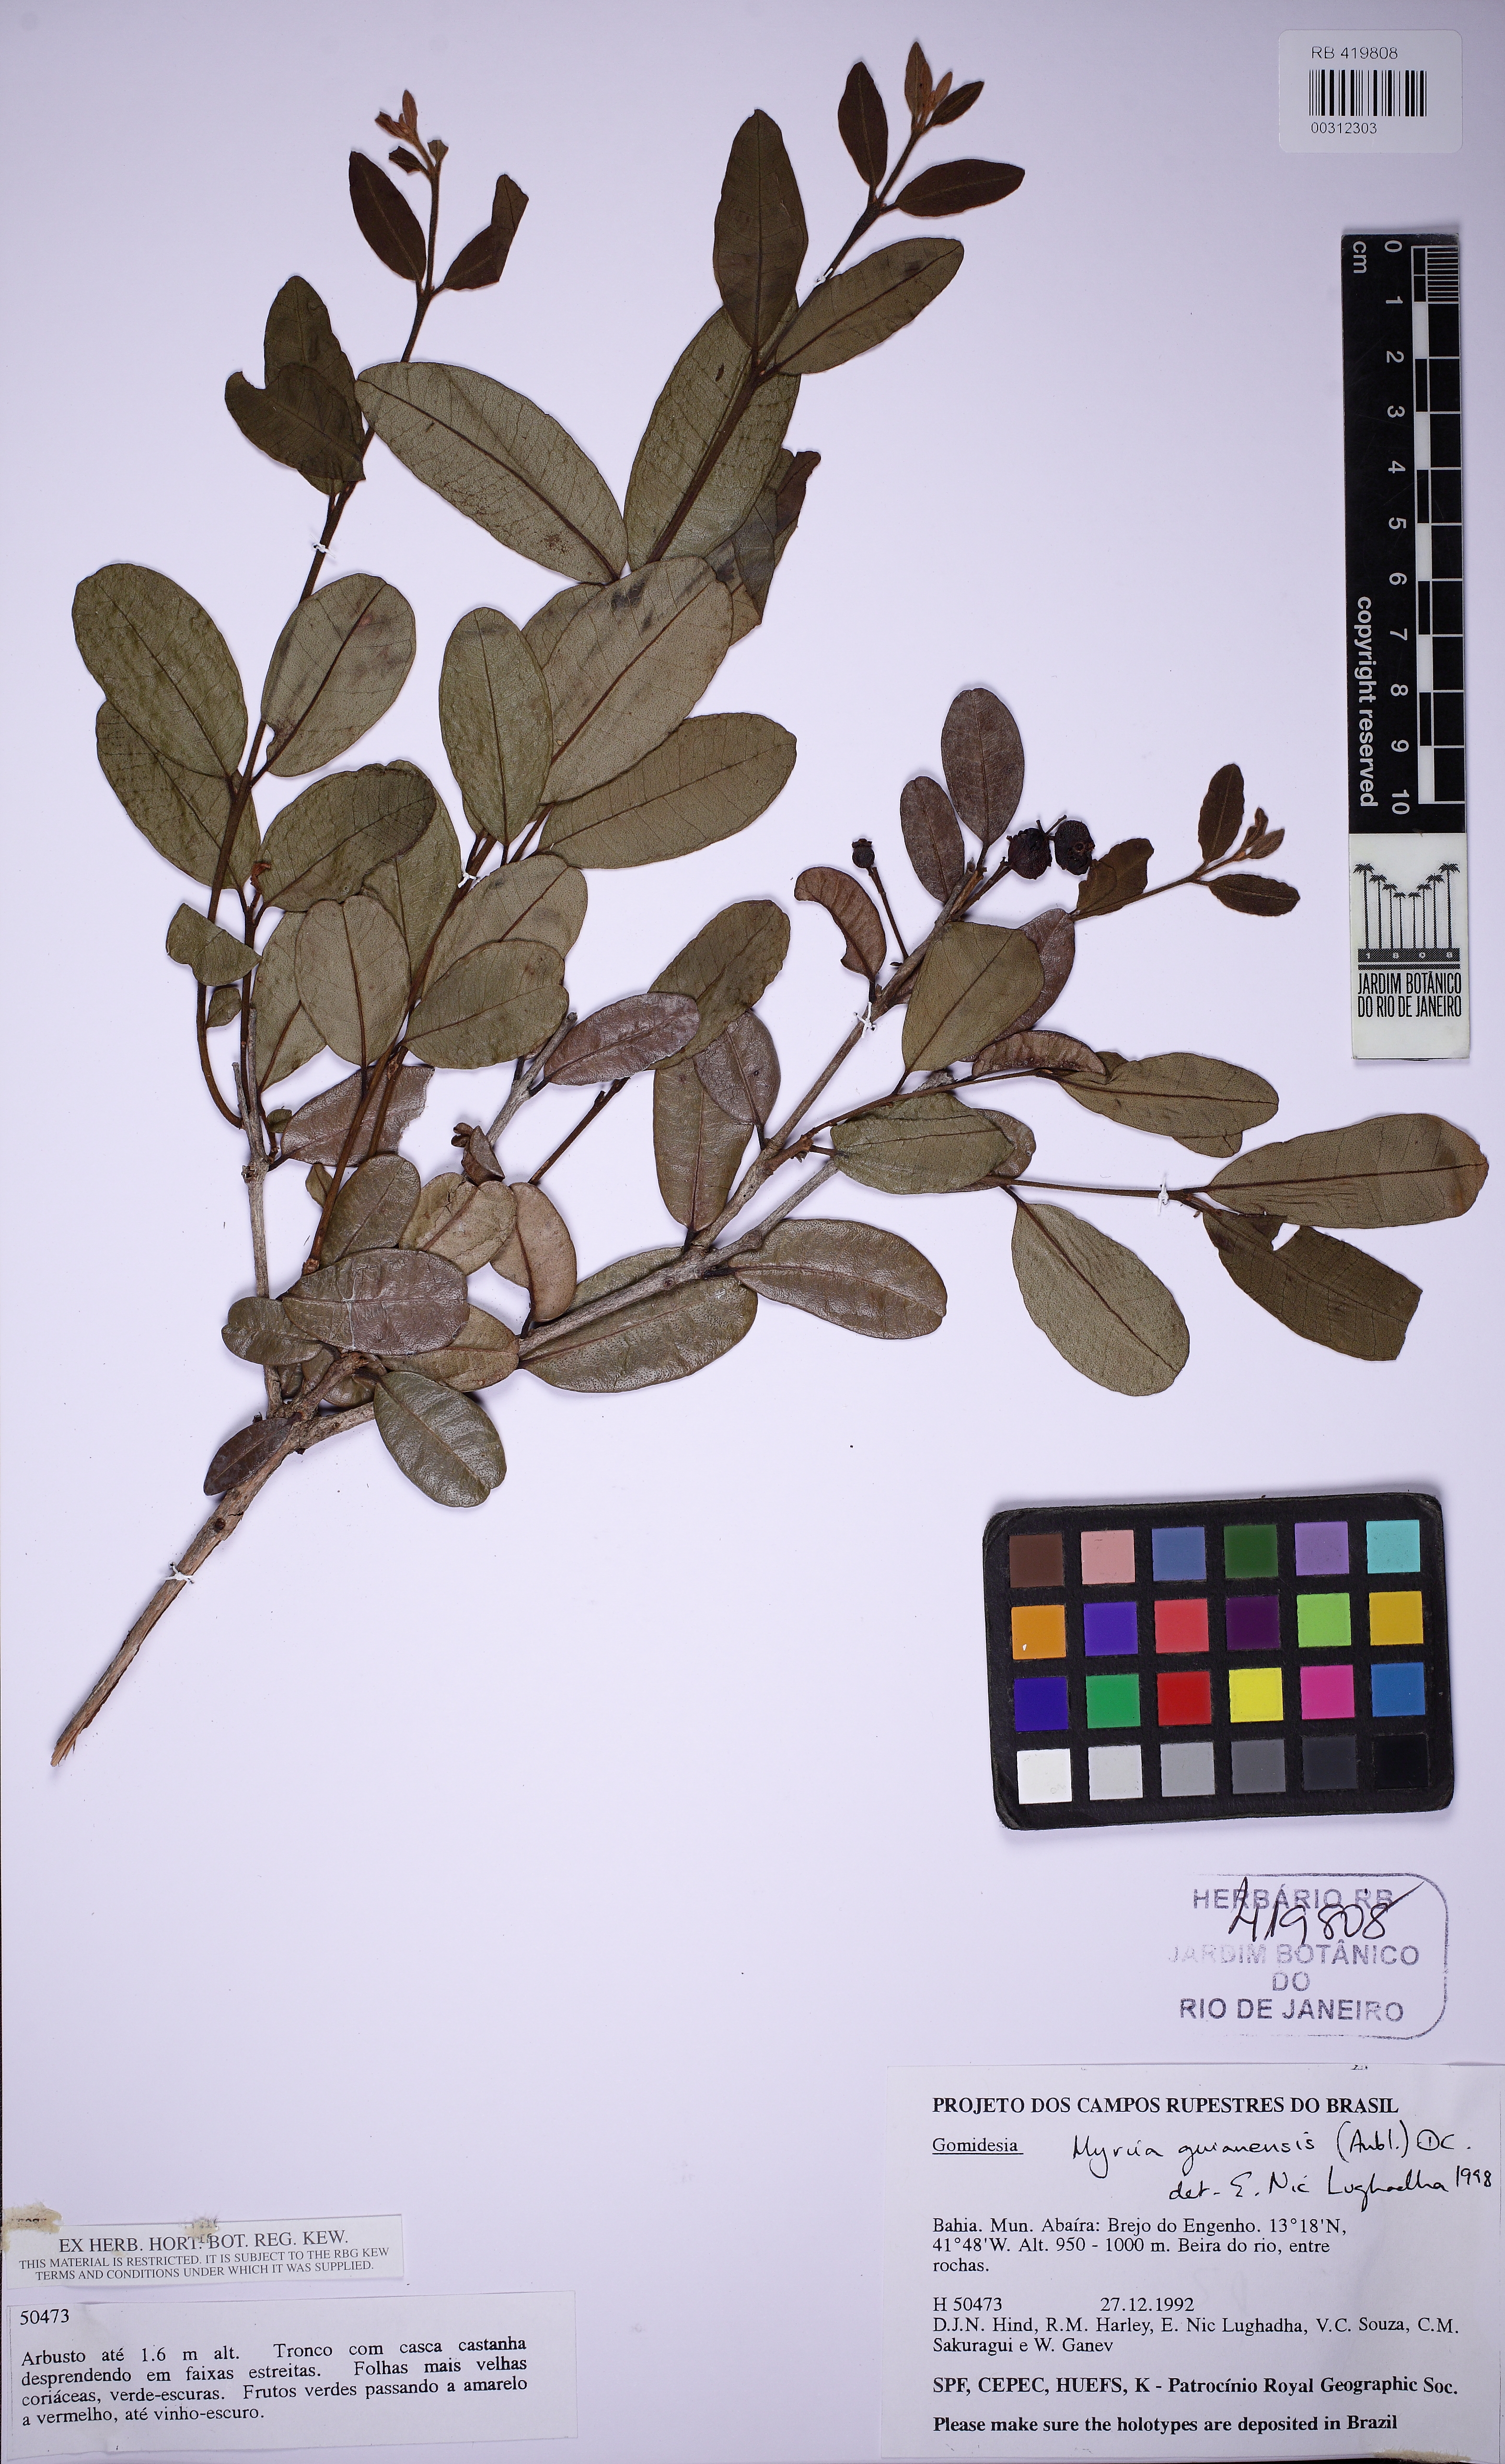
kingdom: Plantae
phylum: Tracheophyta
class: Magnoliopsida
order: Myrtales
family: Myrtaceae
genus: Myrcia
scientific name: Myrcia guianensis
